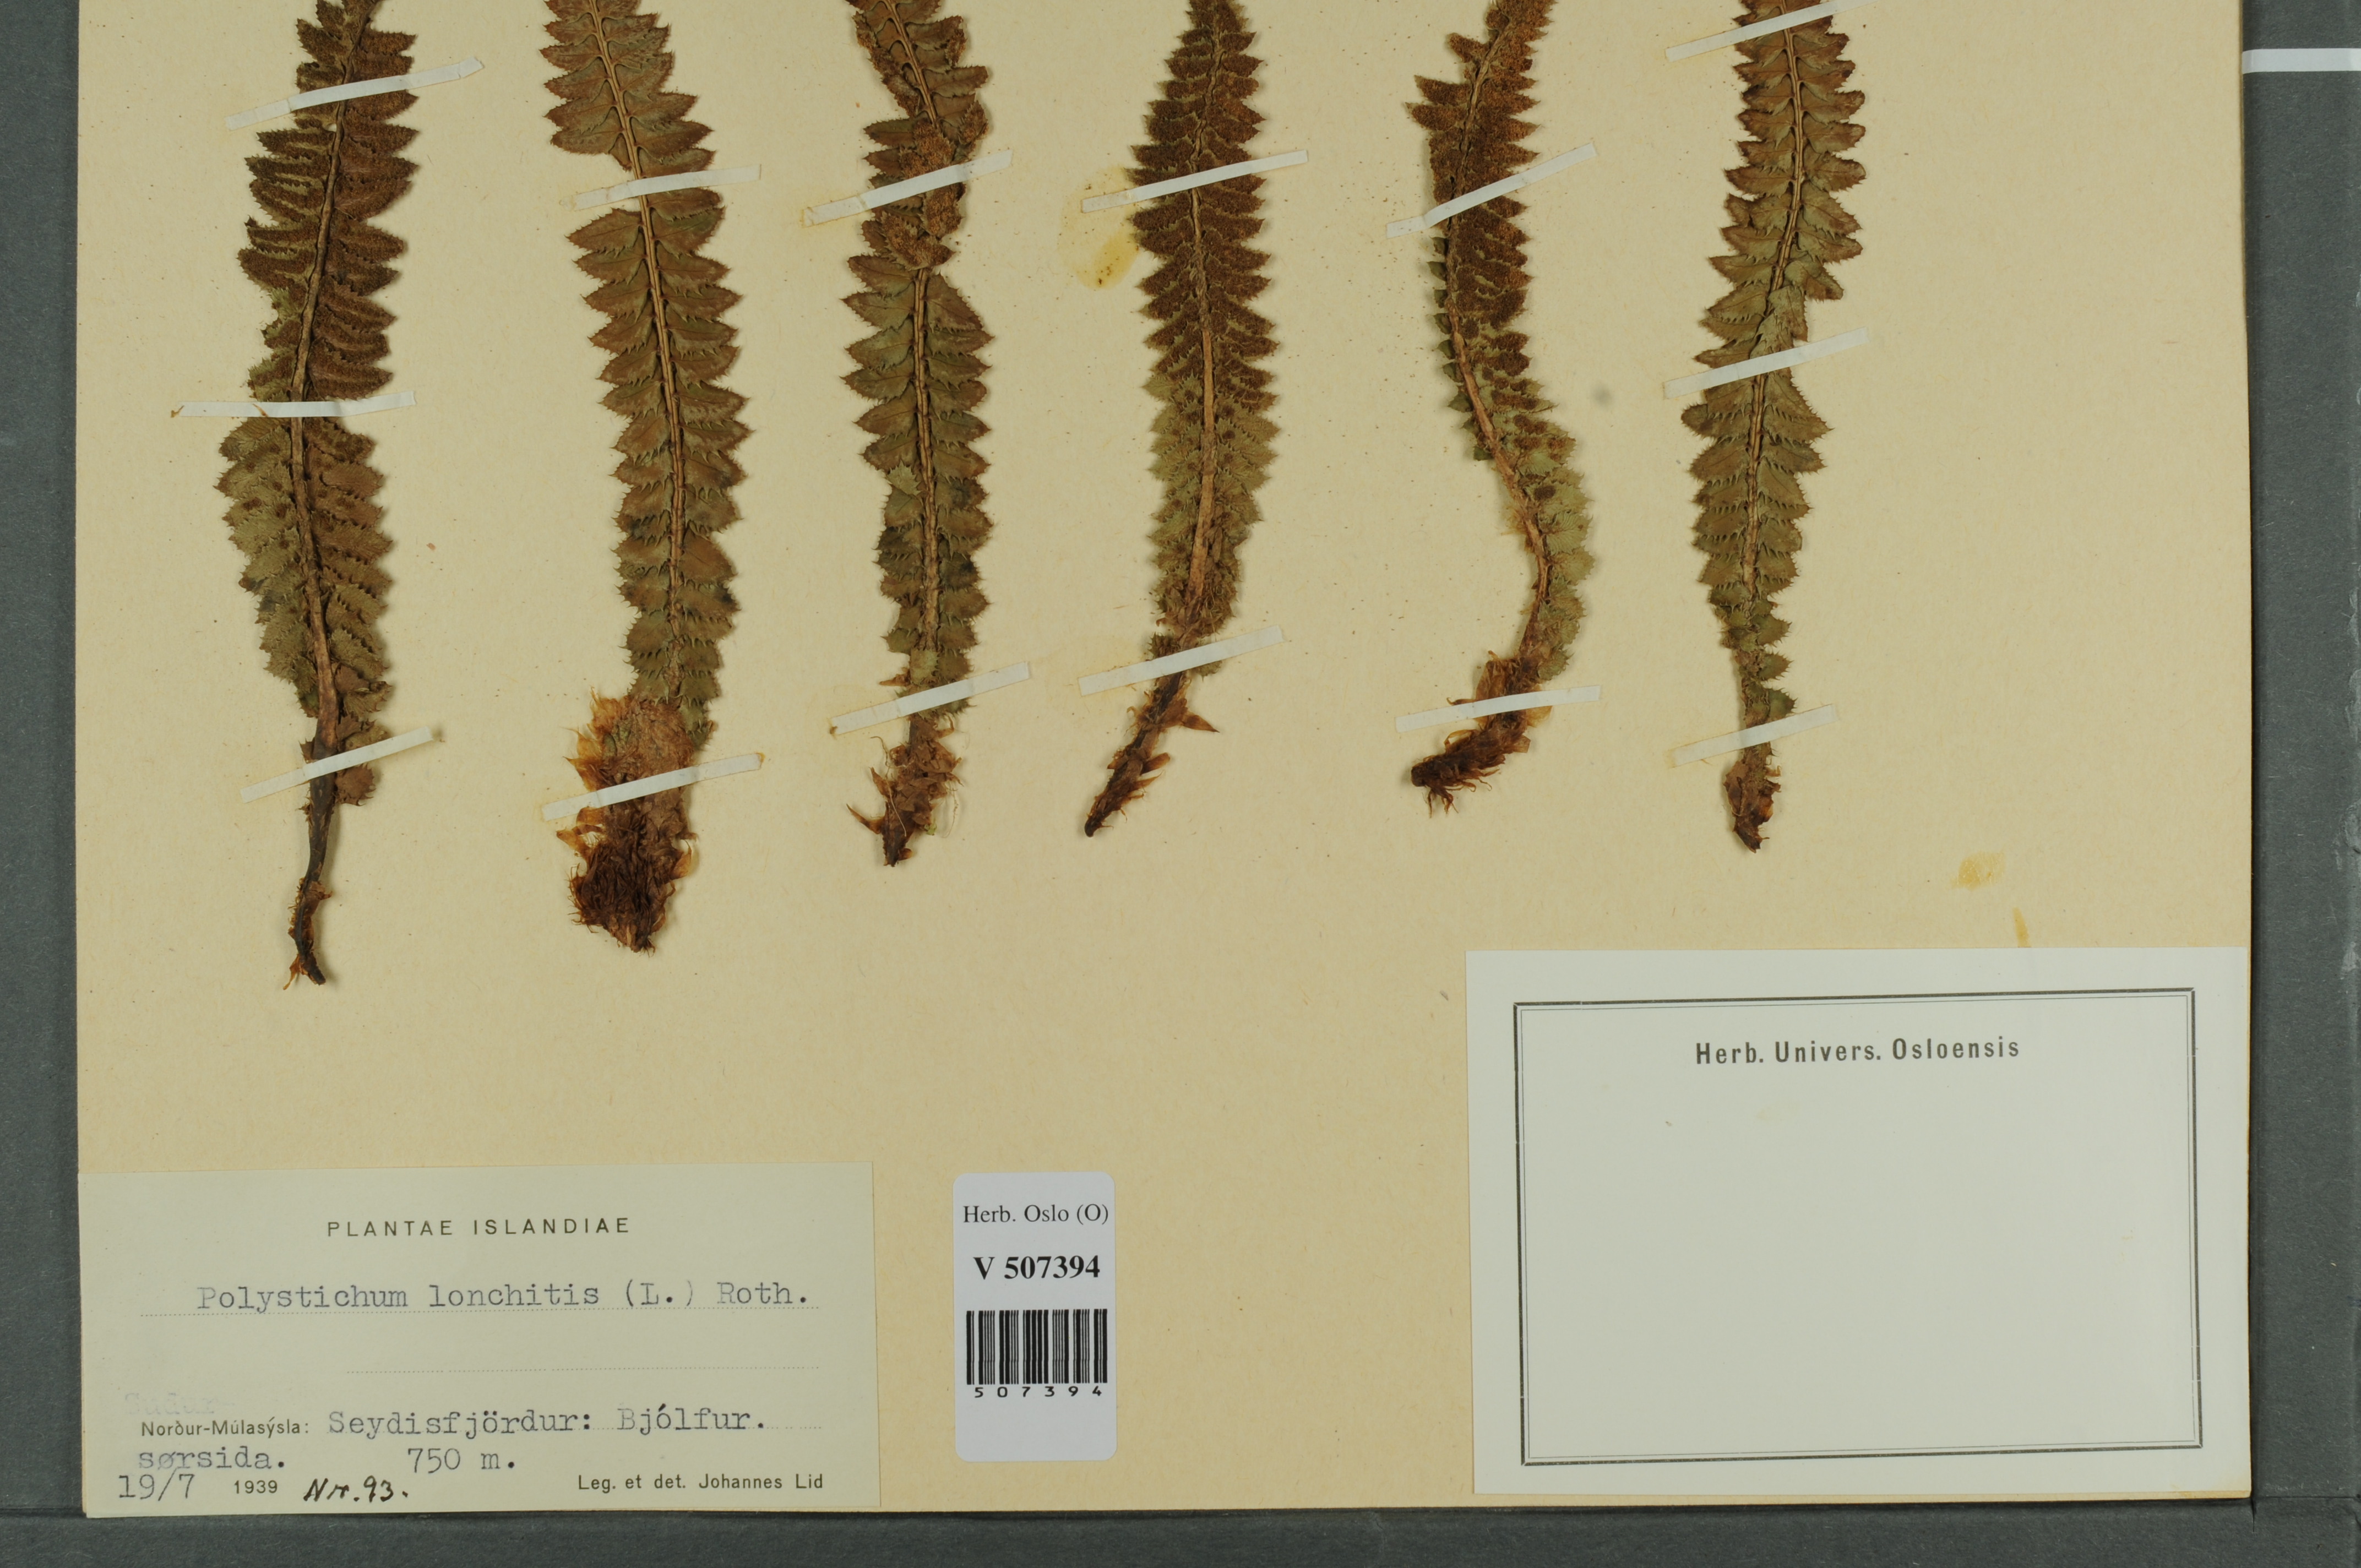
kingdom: Plantae
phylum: Tracheophyta
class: Polypodiopsida
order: Polypodiales
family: Dryopteridaceae
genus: Polystichum
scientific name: Polystichum lonchitis
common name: Holly fern
